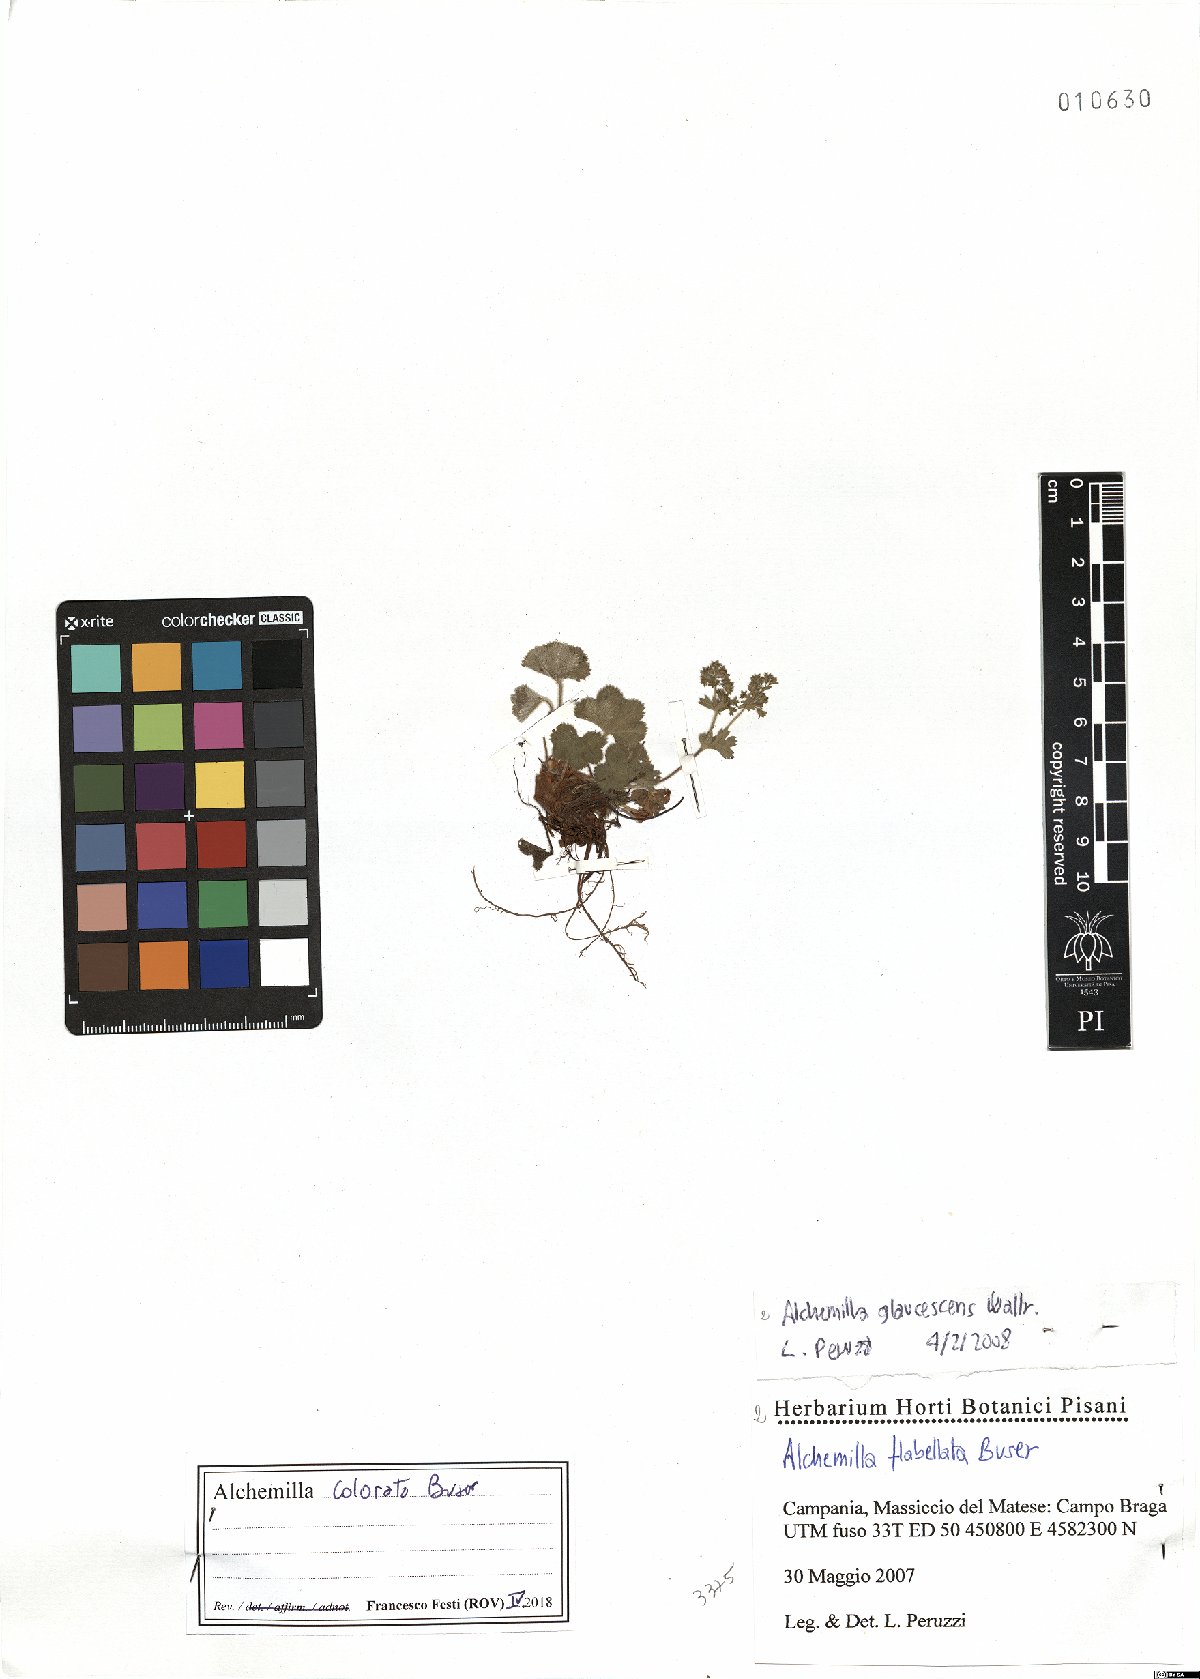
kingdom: Plantae
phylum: Tracheophyta
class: Magnoliopsida
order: Rosales
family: Rosaceae
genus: Alchemilla
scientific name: Alchemilla colorata
